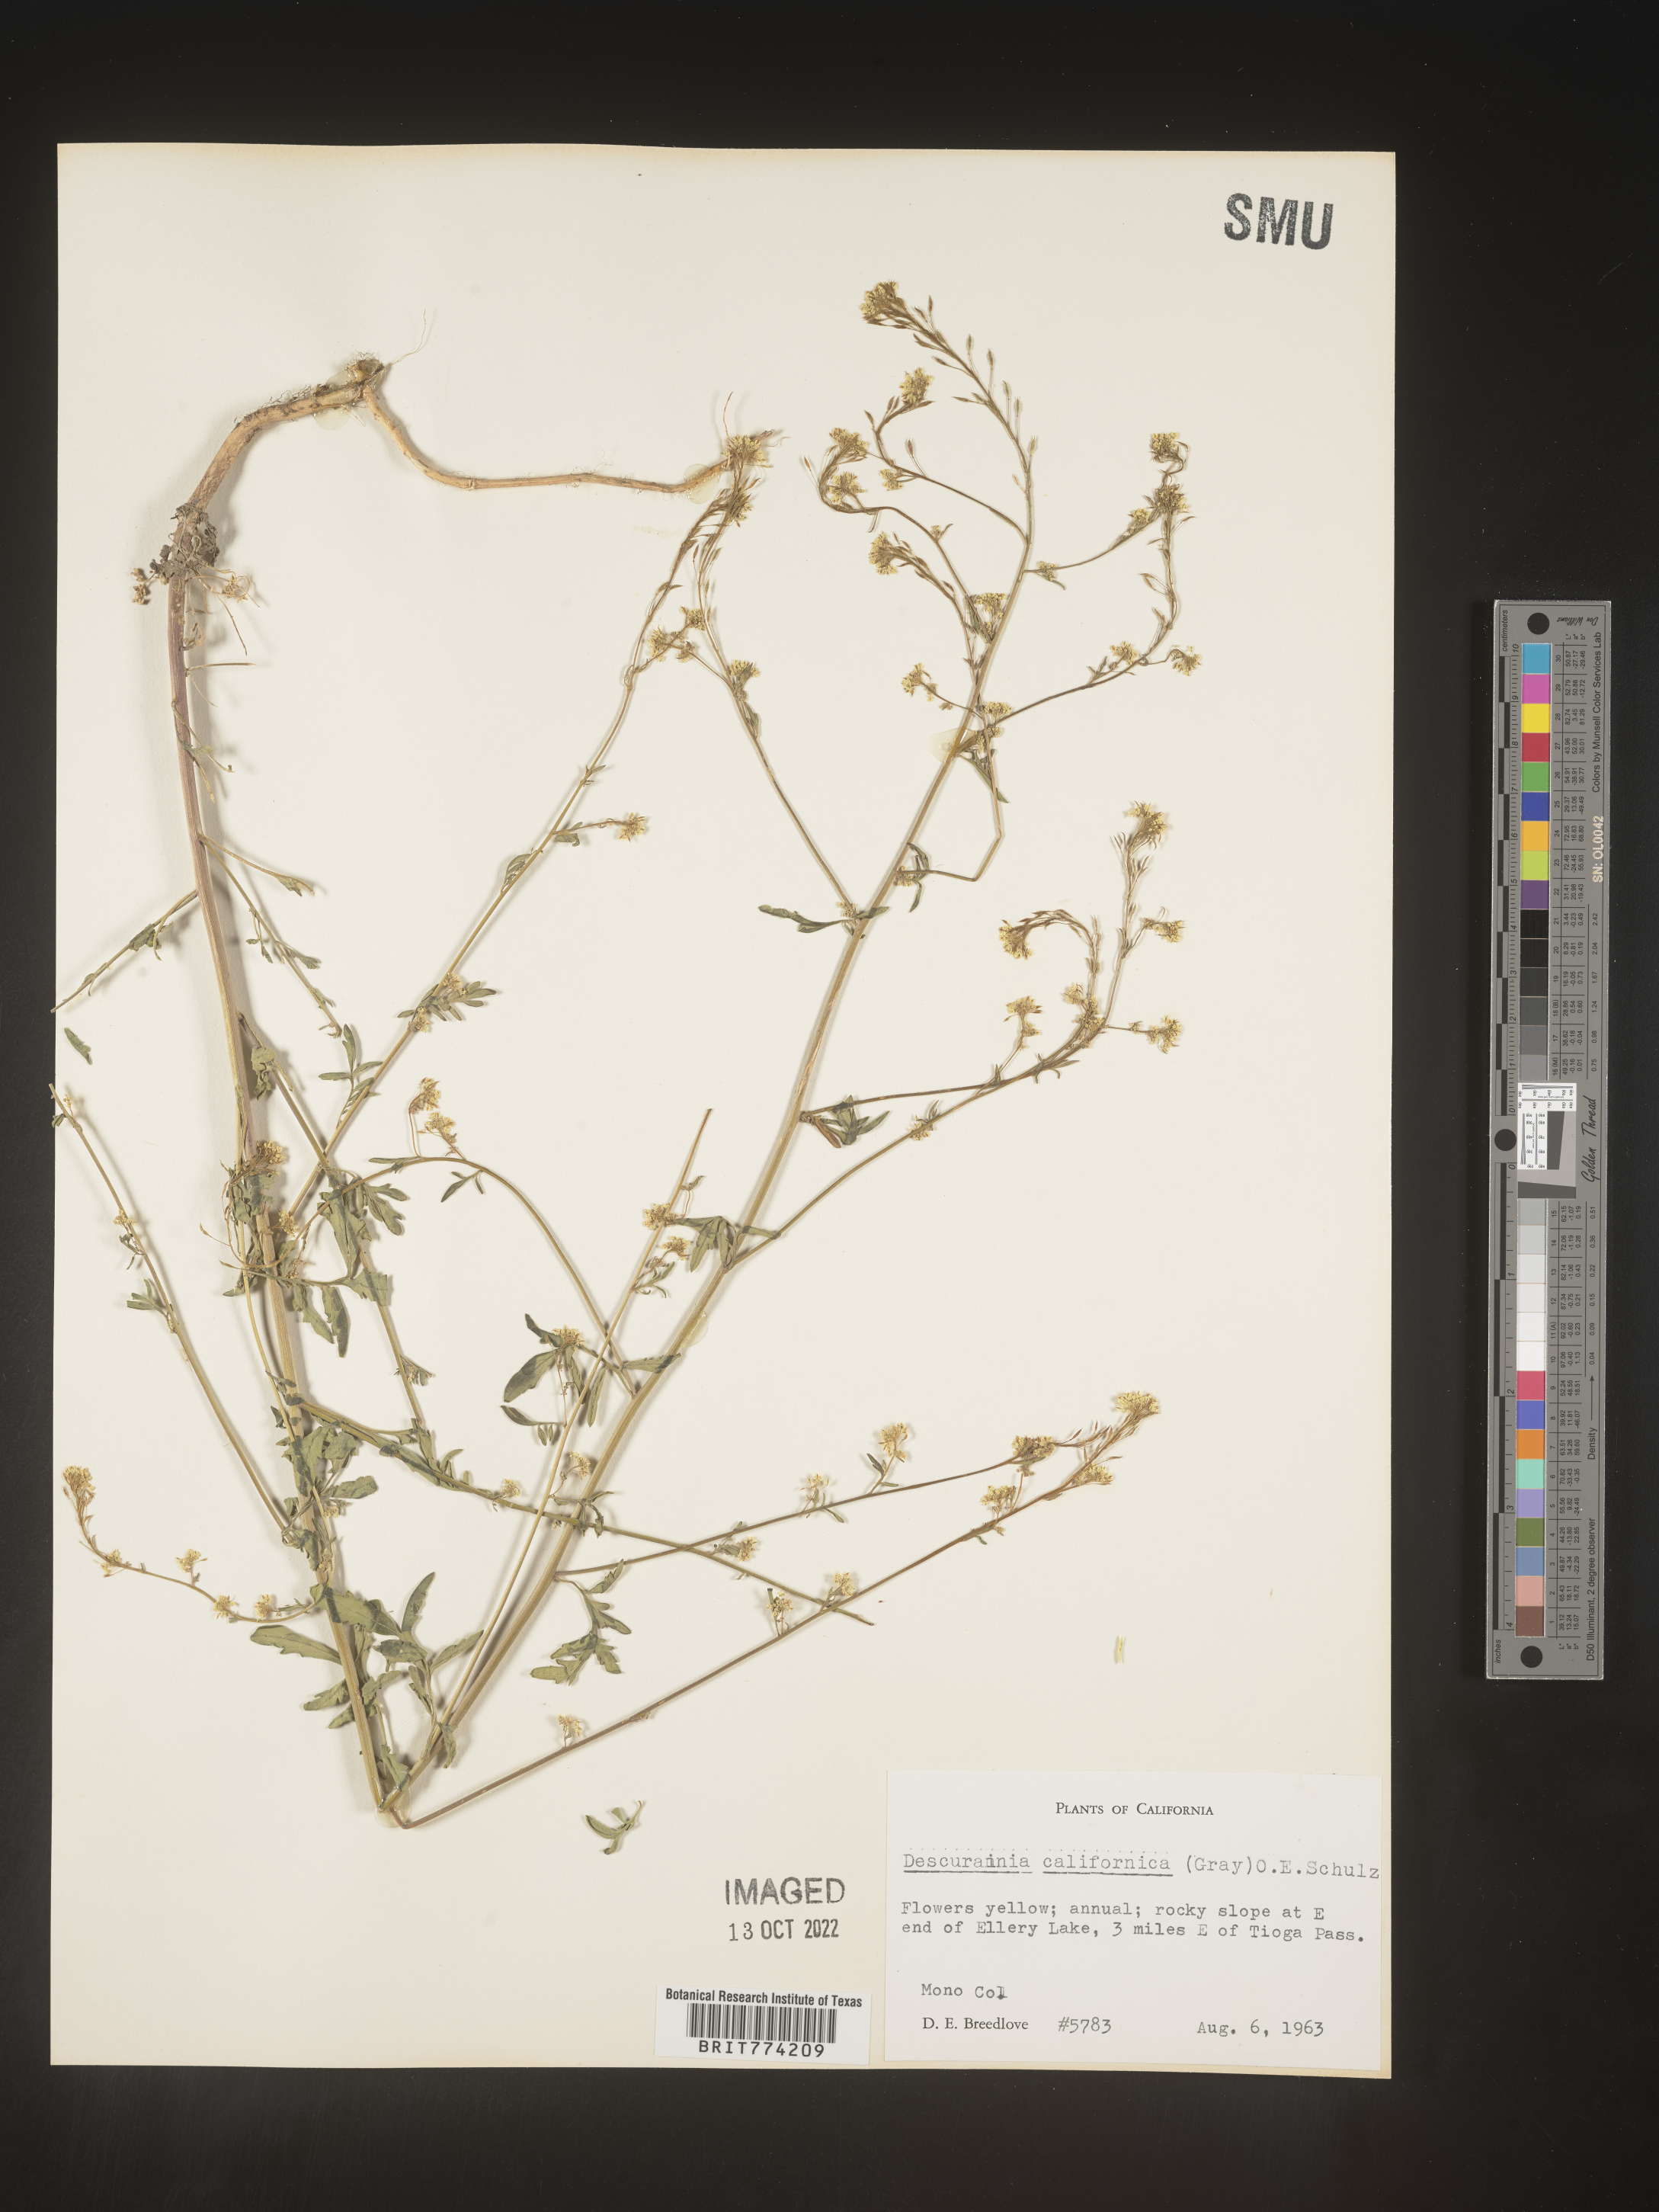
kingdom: Plantae
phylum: Tracheophyta
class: Magnoliopsida
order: Brassicales
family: Brassicaceae
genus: Descurainia
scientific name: Descurainia
